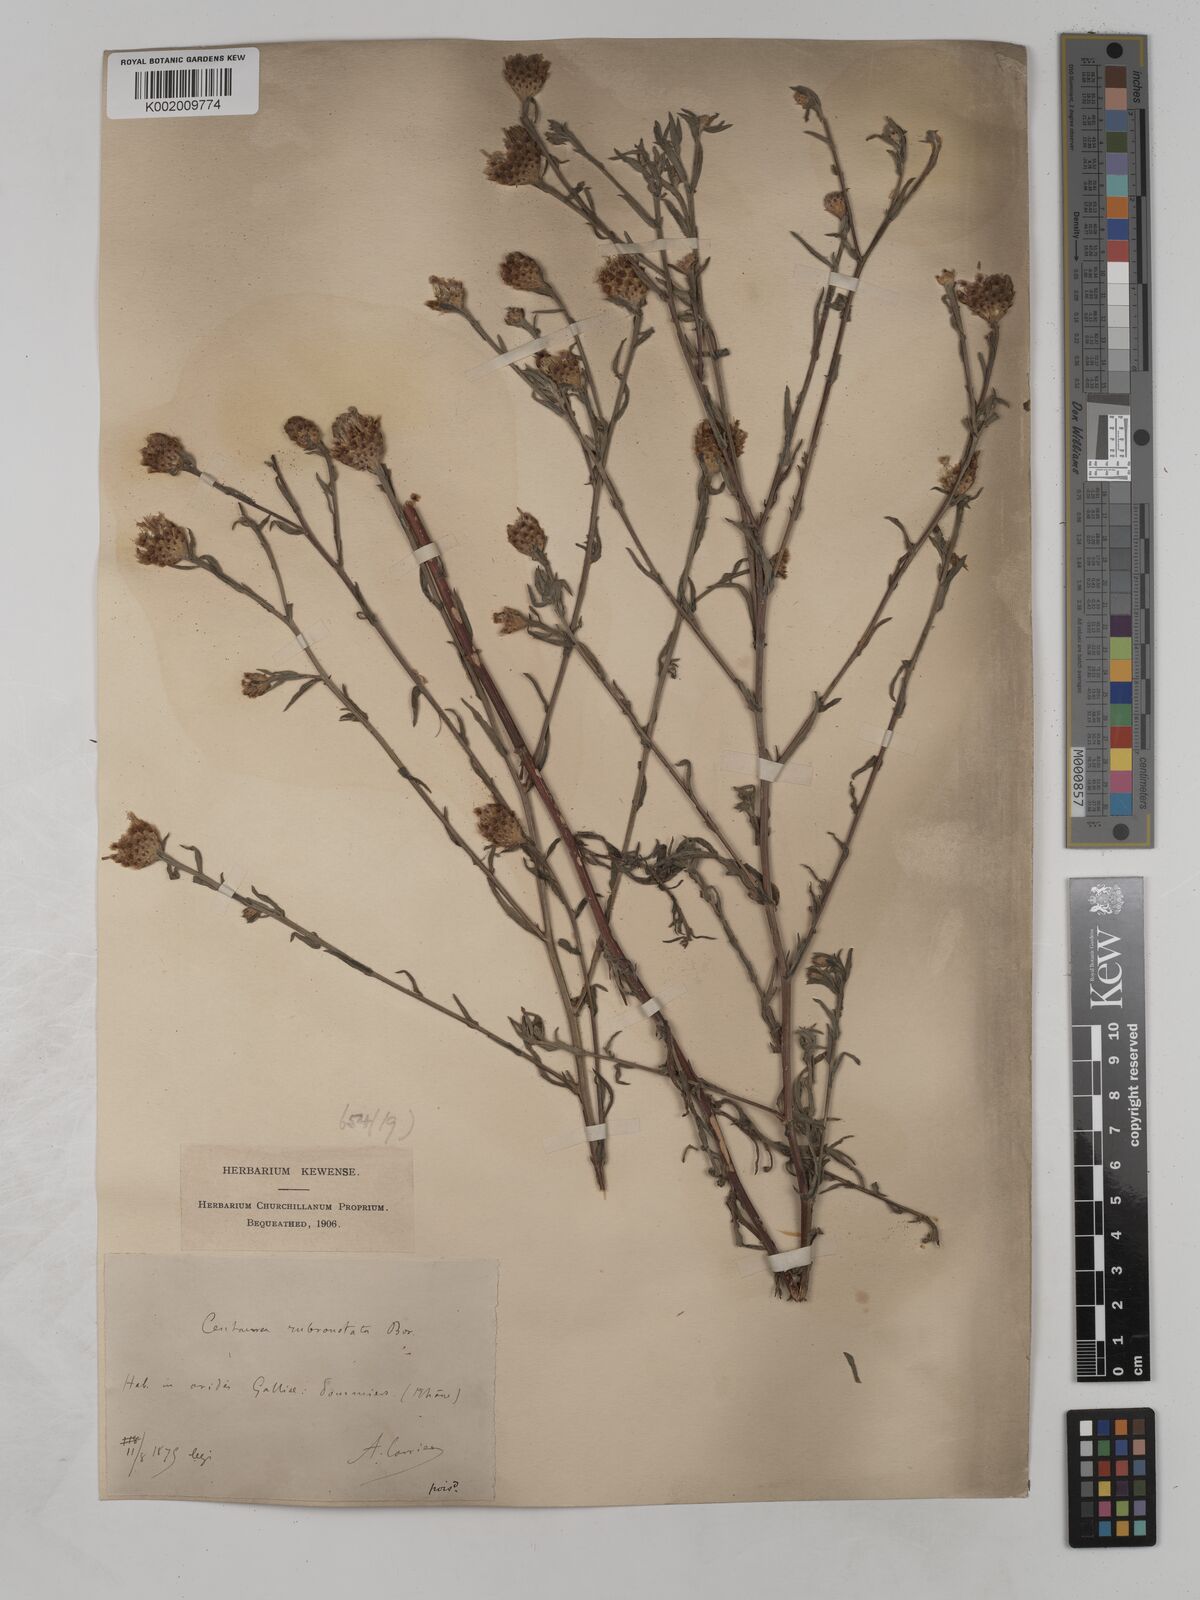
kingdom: Plantae
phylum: Tracheophyta
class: Magnoliopsida
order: Asterales
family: Asteraceae
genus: Centaurea
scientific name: Centaurea timbalii
